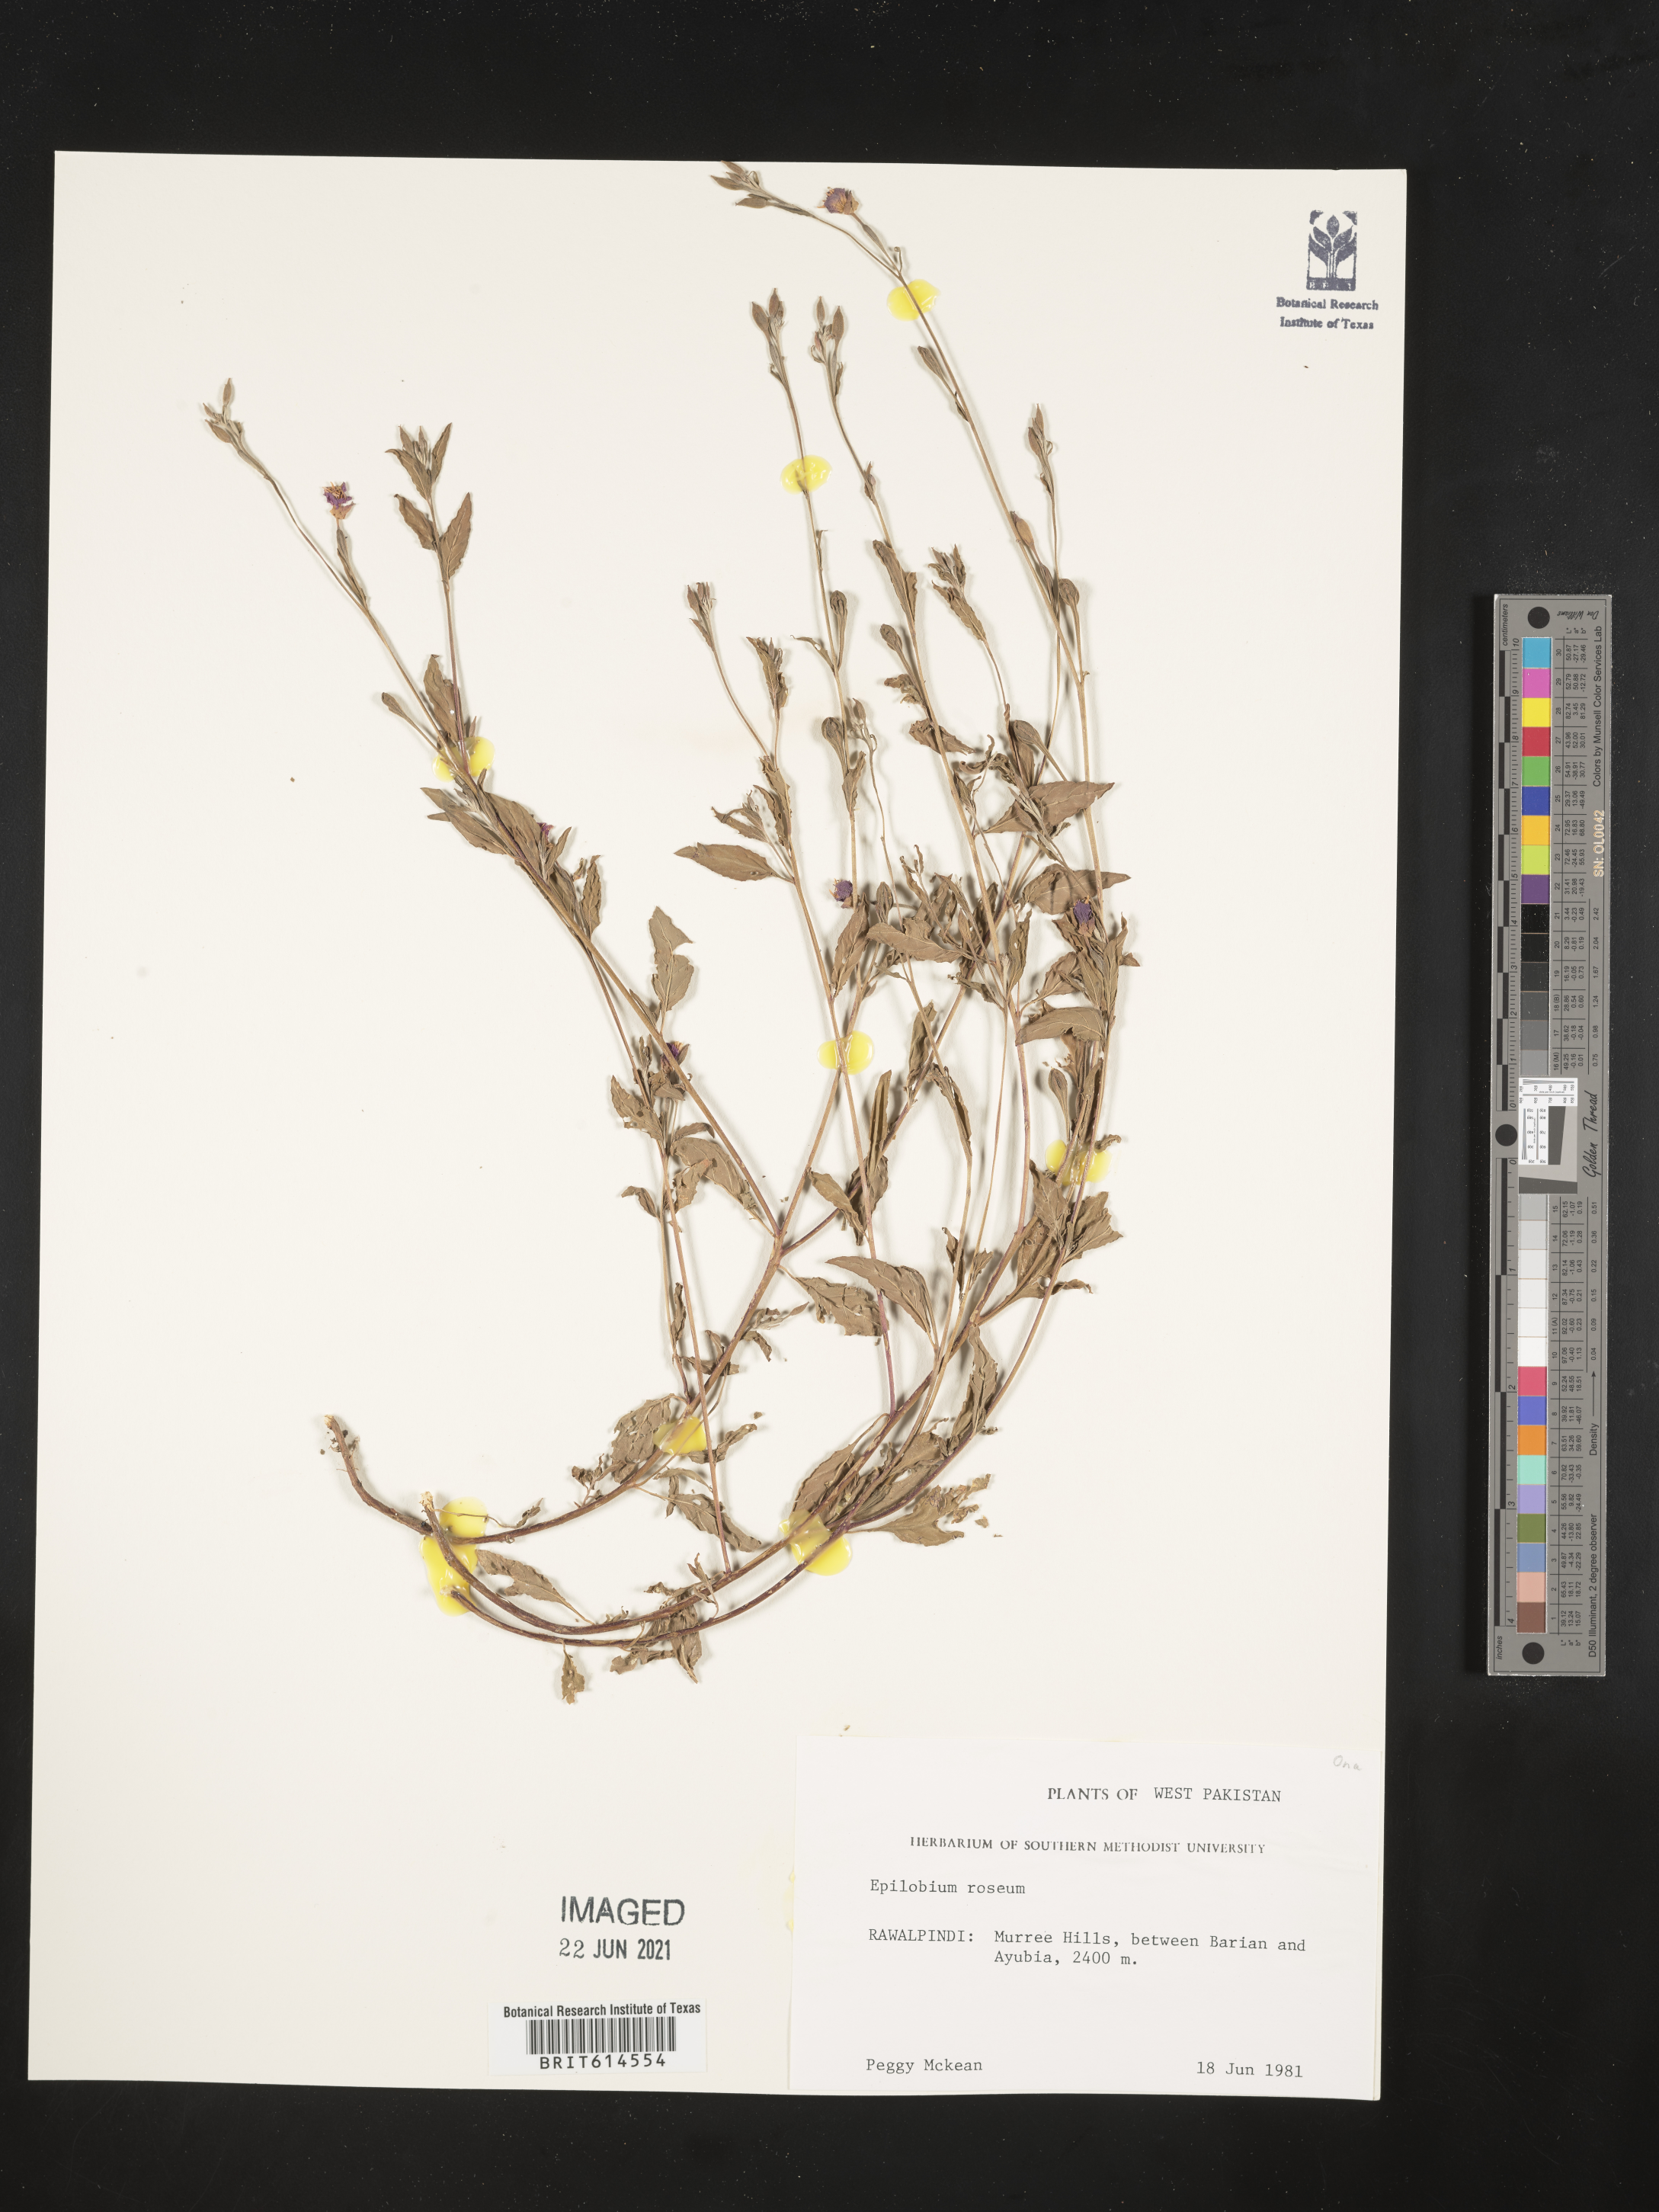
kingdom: Plantae
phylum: Tracheophyta
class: Magnoliopsida
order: Myrtales
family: Onagraceae
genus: Epilobium
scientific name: Epilobium roseum
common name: Pale willowherb
